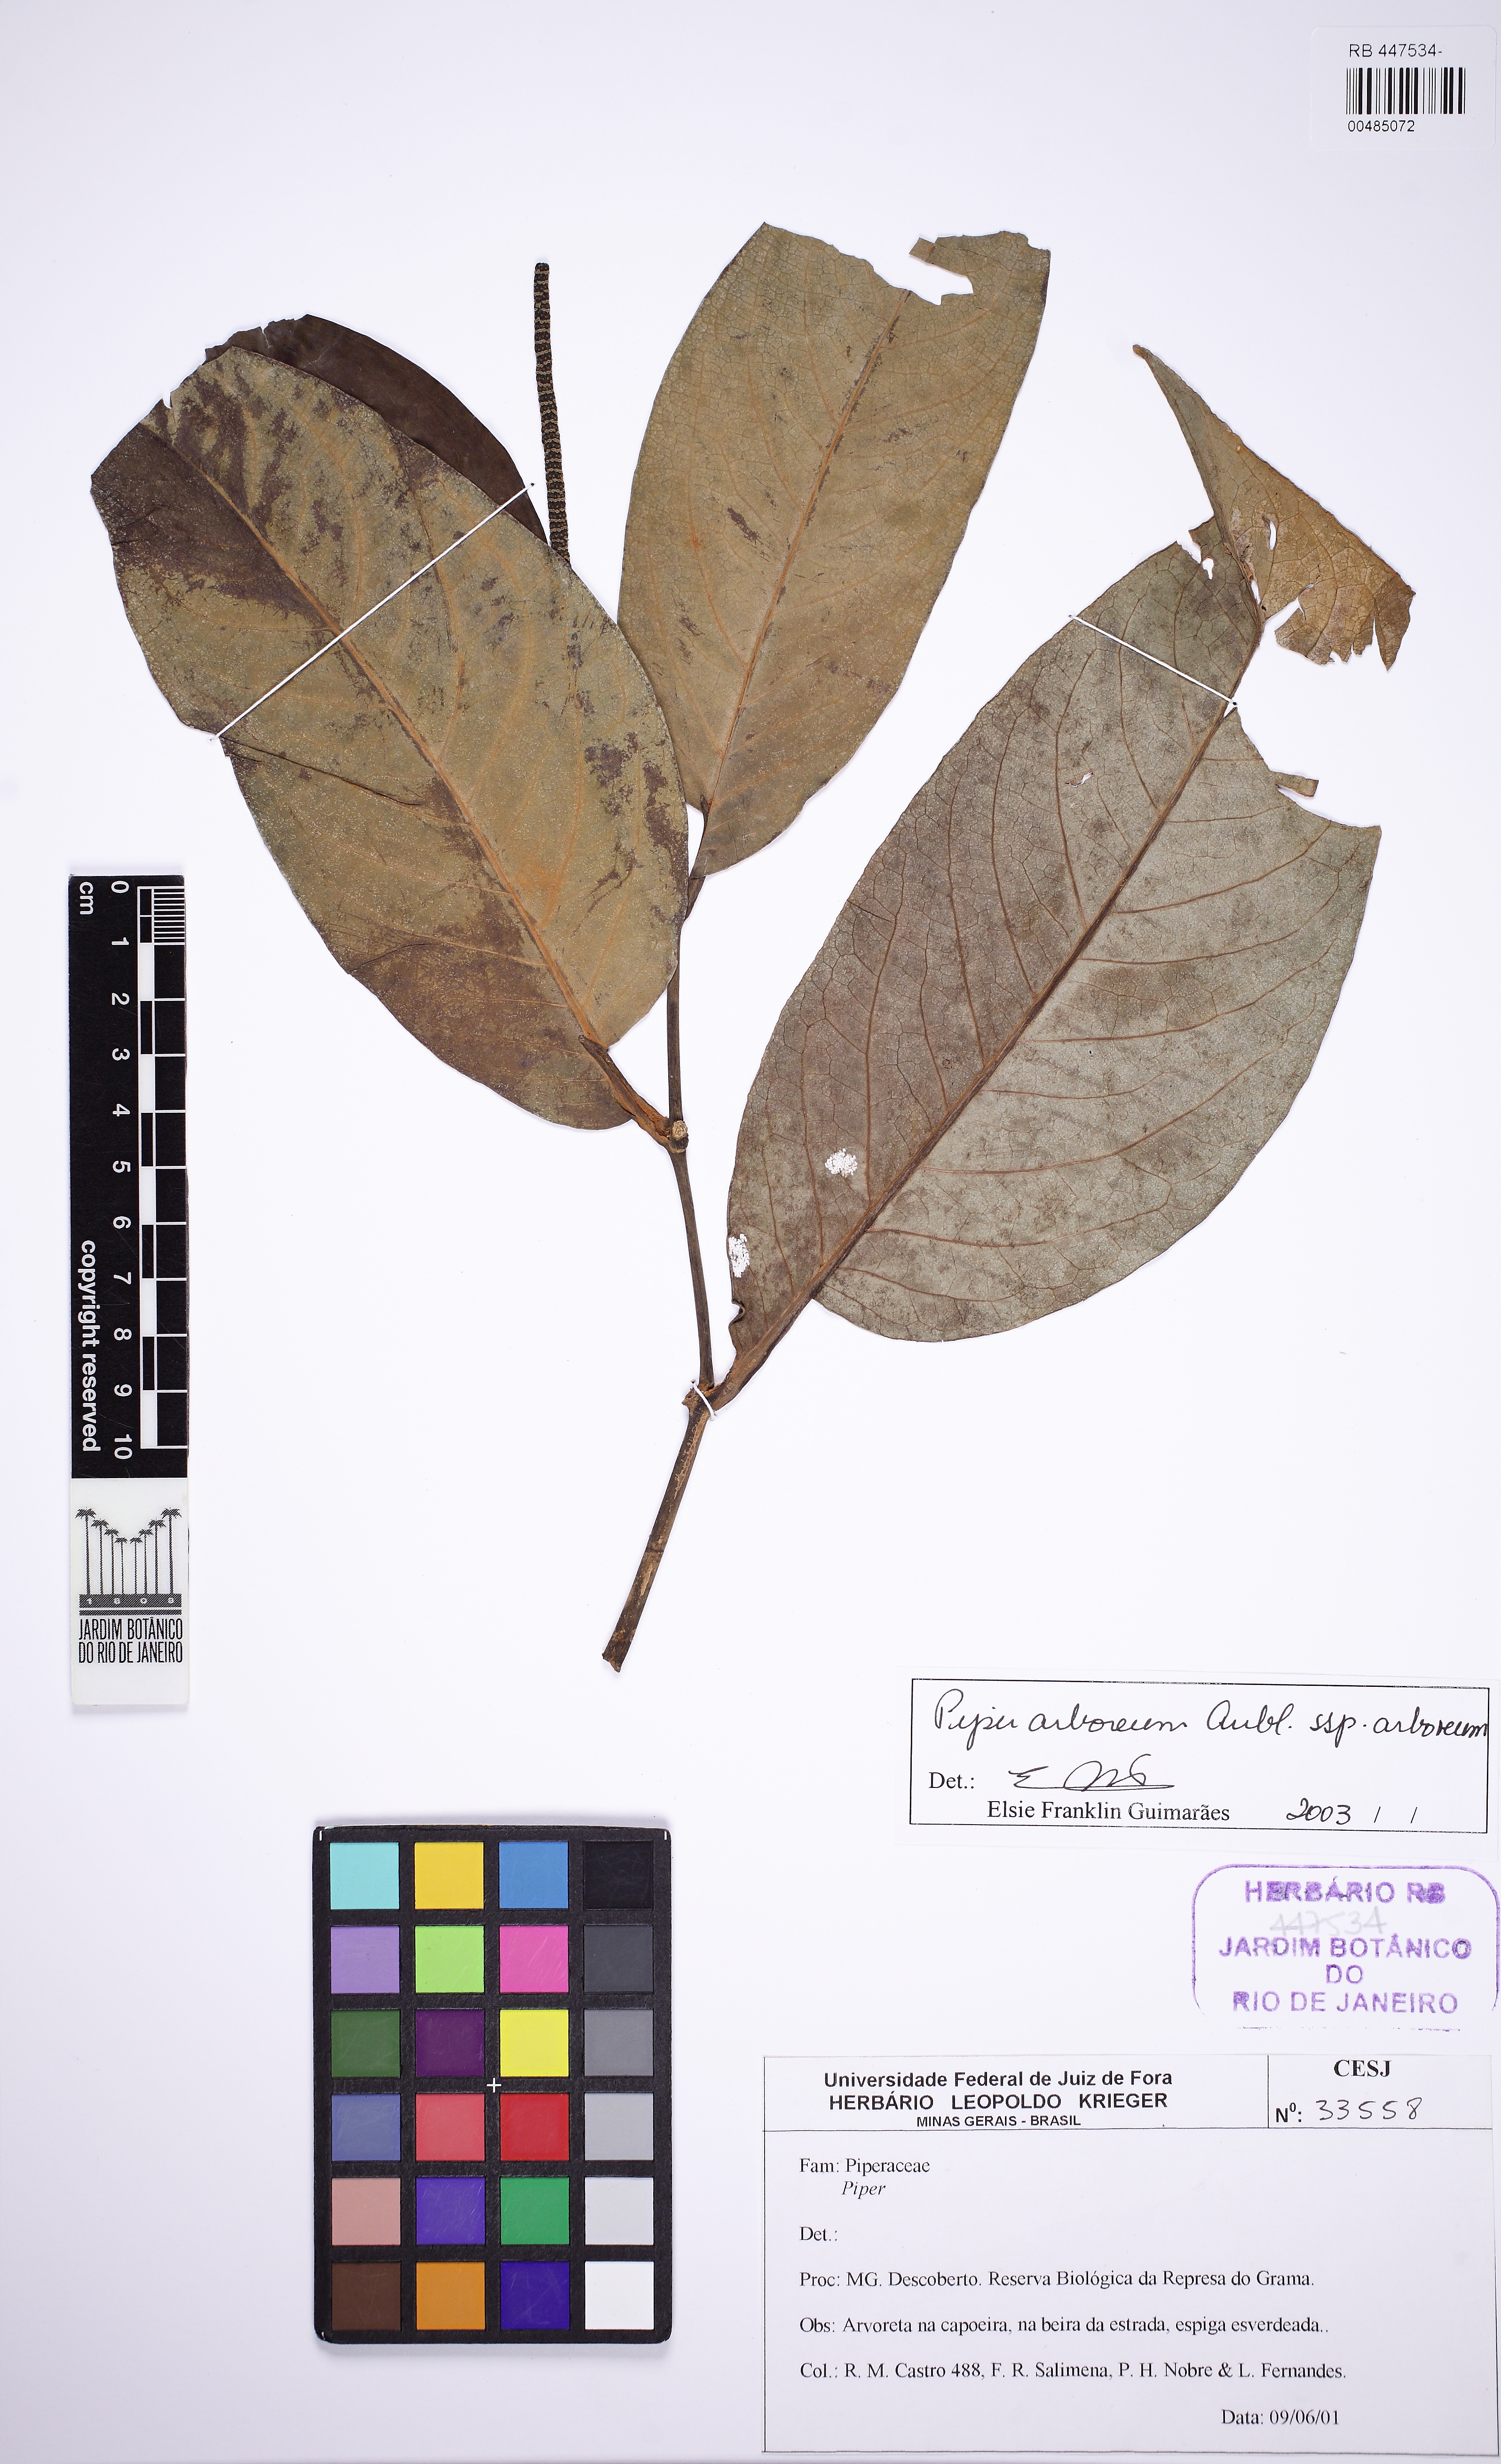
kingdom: Plantae
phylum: Tracheophyta
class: Magnoliopsida
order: Piperales
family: Piperaceae
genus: Piper
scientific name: Piper arboreum
